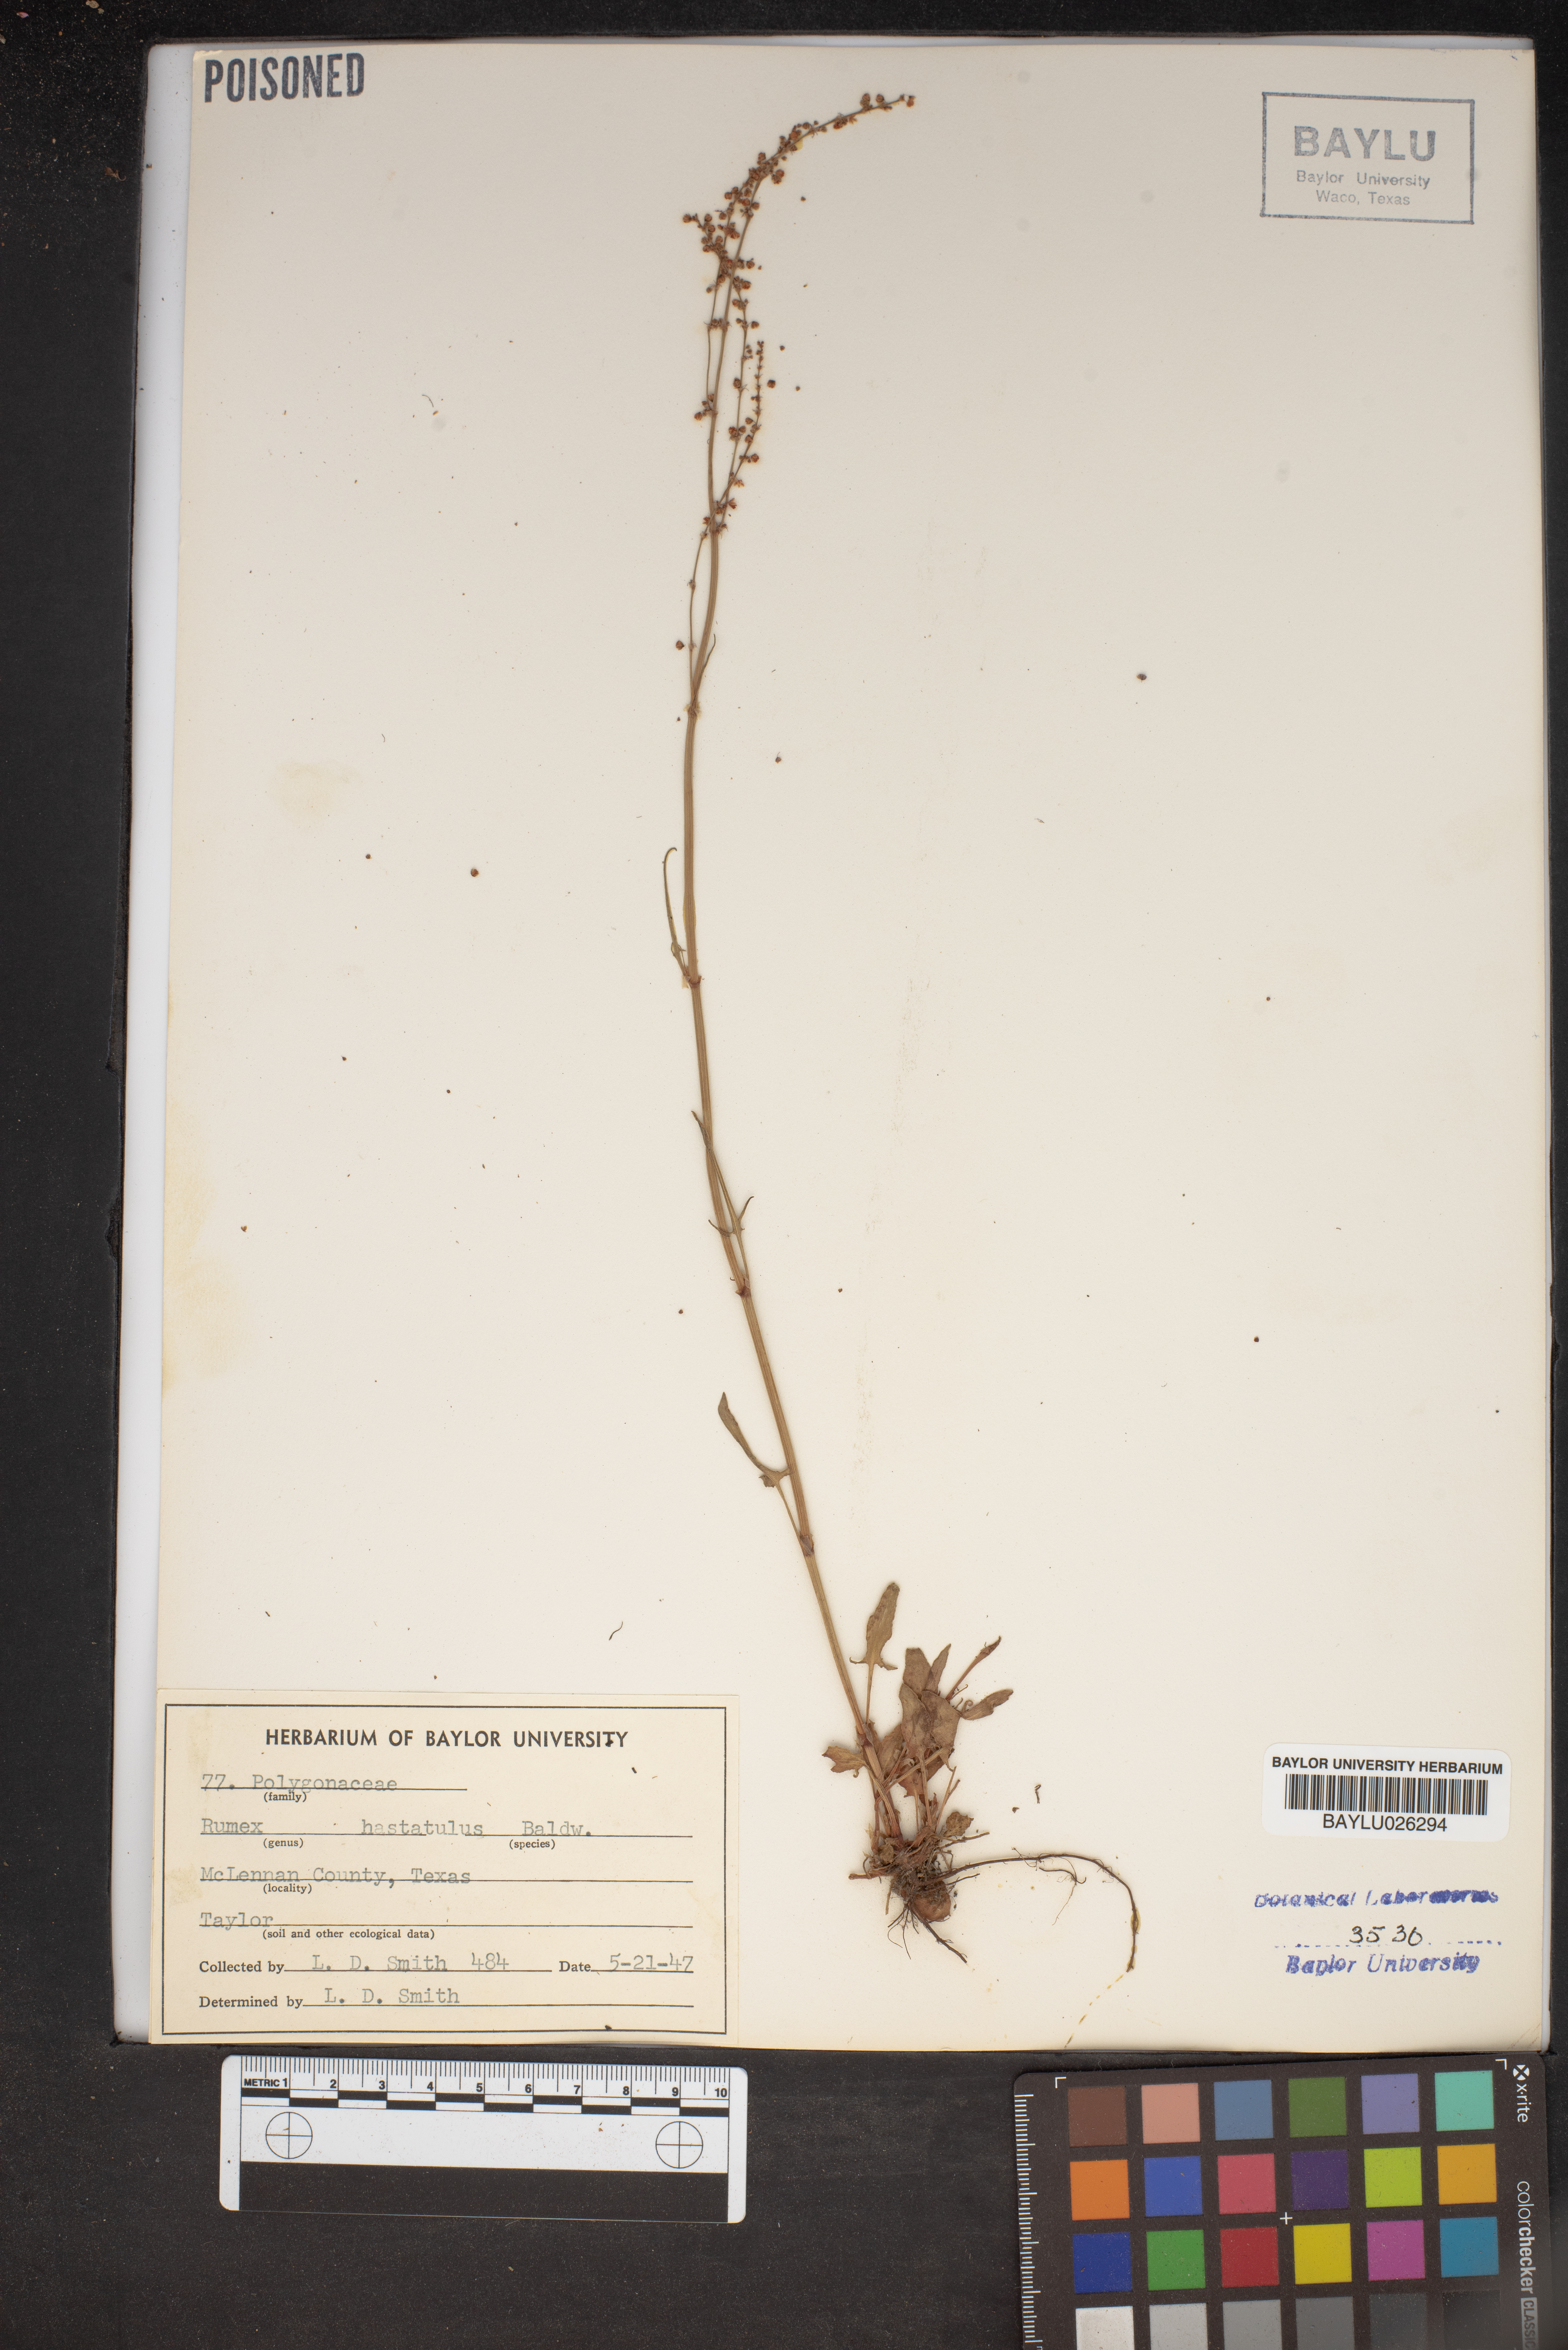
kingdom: Plantae
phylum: Tracheophyta
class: Magnoliopsida
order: Caryophyllales
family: Polygonaceae
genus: Rumex
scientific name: Rumex hastatulus
